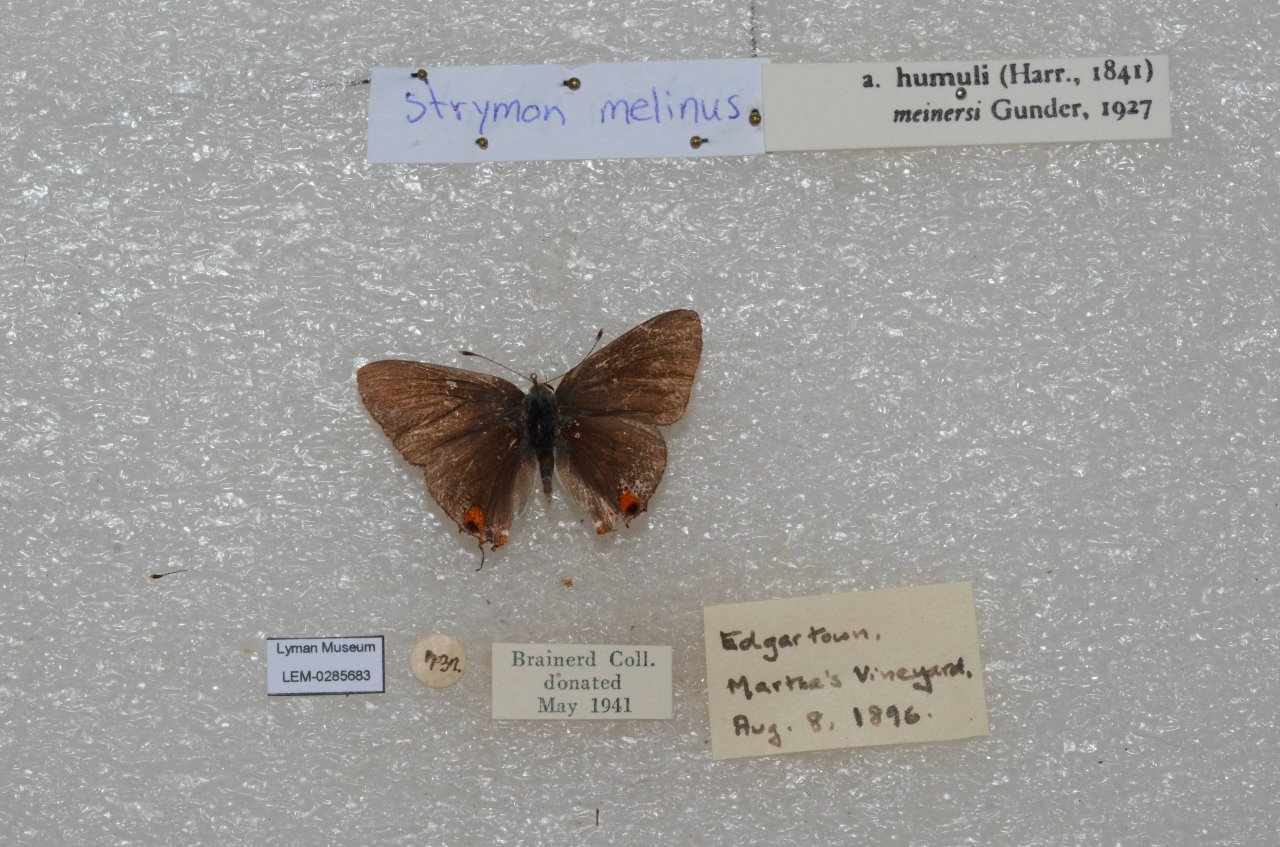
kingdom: Animalia
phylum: Arthropoda
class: Insecta
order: Lepidoptera
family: Lycaenidae
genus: Strymon
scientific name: Strymon melinus
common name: Gray Hairstreak
